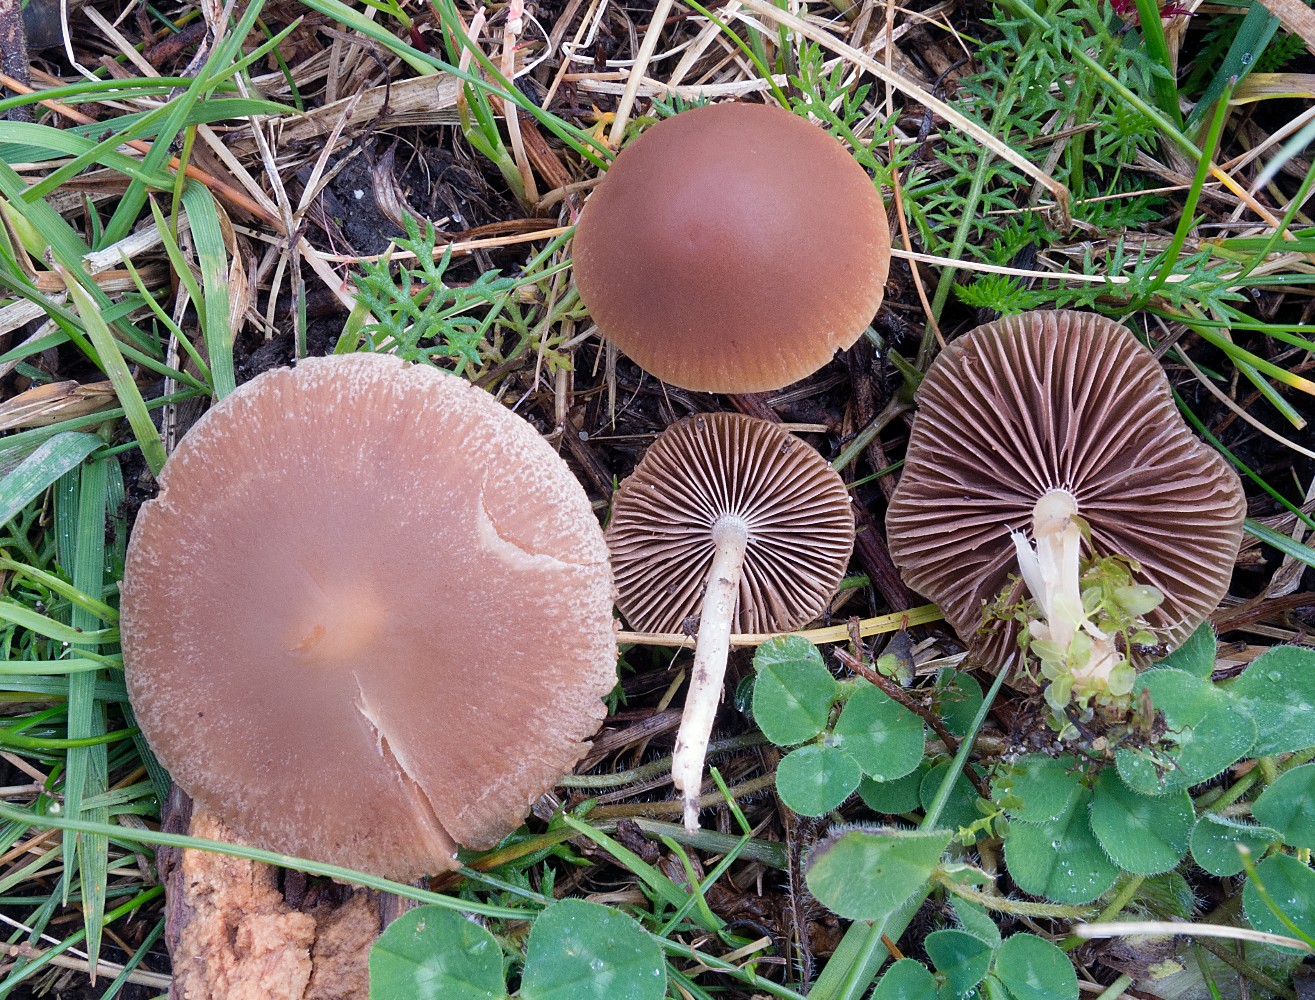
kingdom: Fungi
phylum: Basidiomycota
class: Agaricomycetes
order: Agaricales
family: Psathyrellaceae
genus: Psathyrella
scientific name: Psathyrella clivensis
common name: eng-mørkhat
